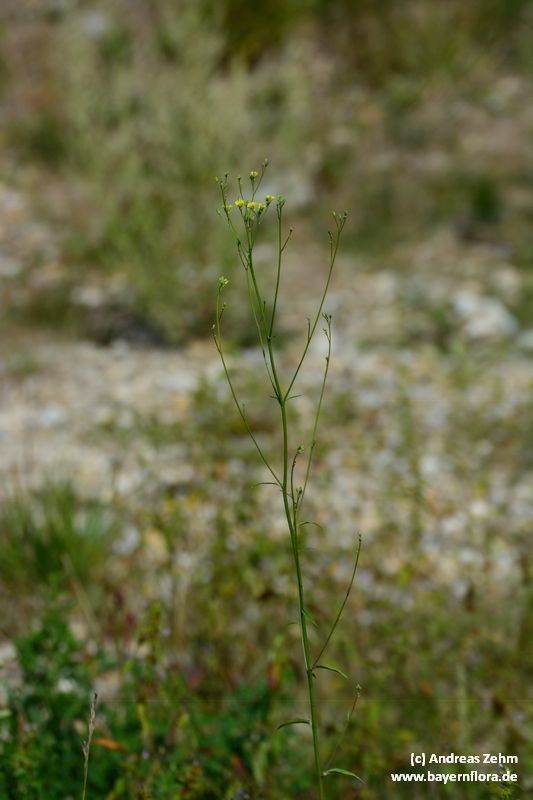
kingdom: Plantae
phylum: Tracheophyta
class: Magnoliopsida
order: Asterales
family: Asteraceae
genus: Lapsana
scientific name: Lapsana communis
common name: Nipplewort
